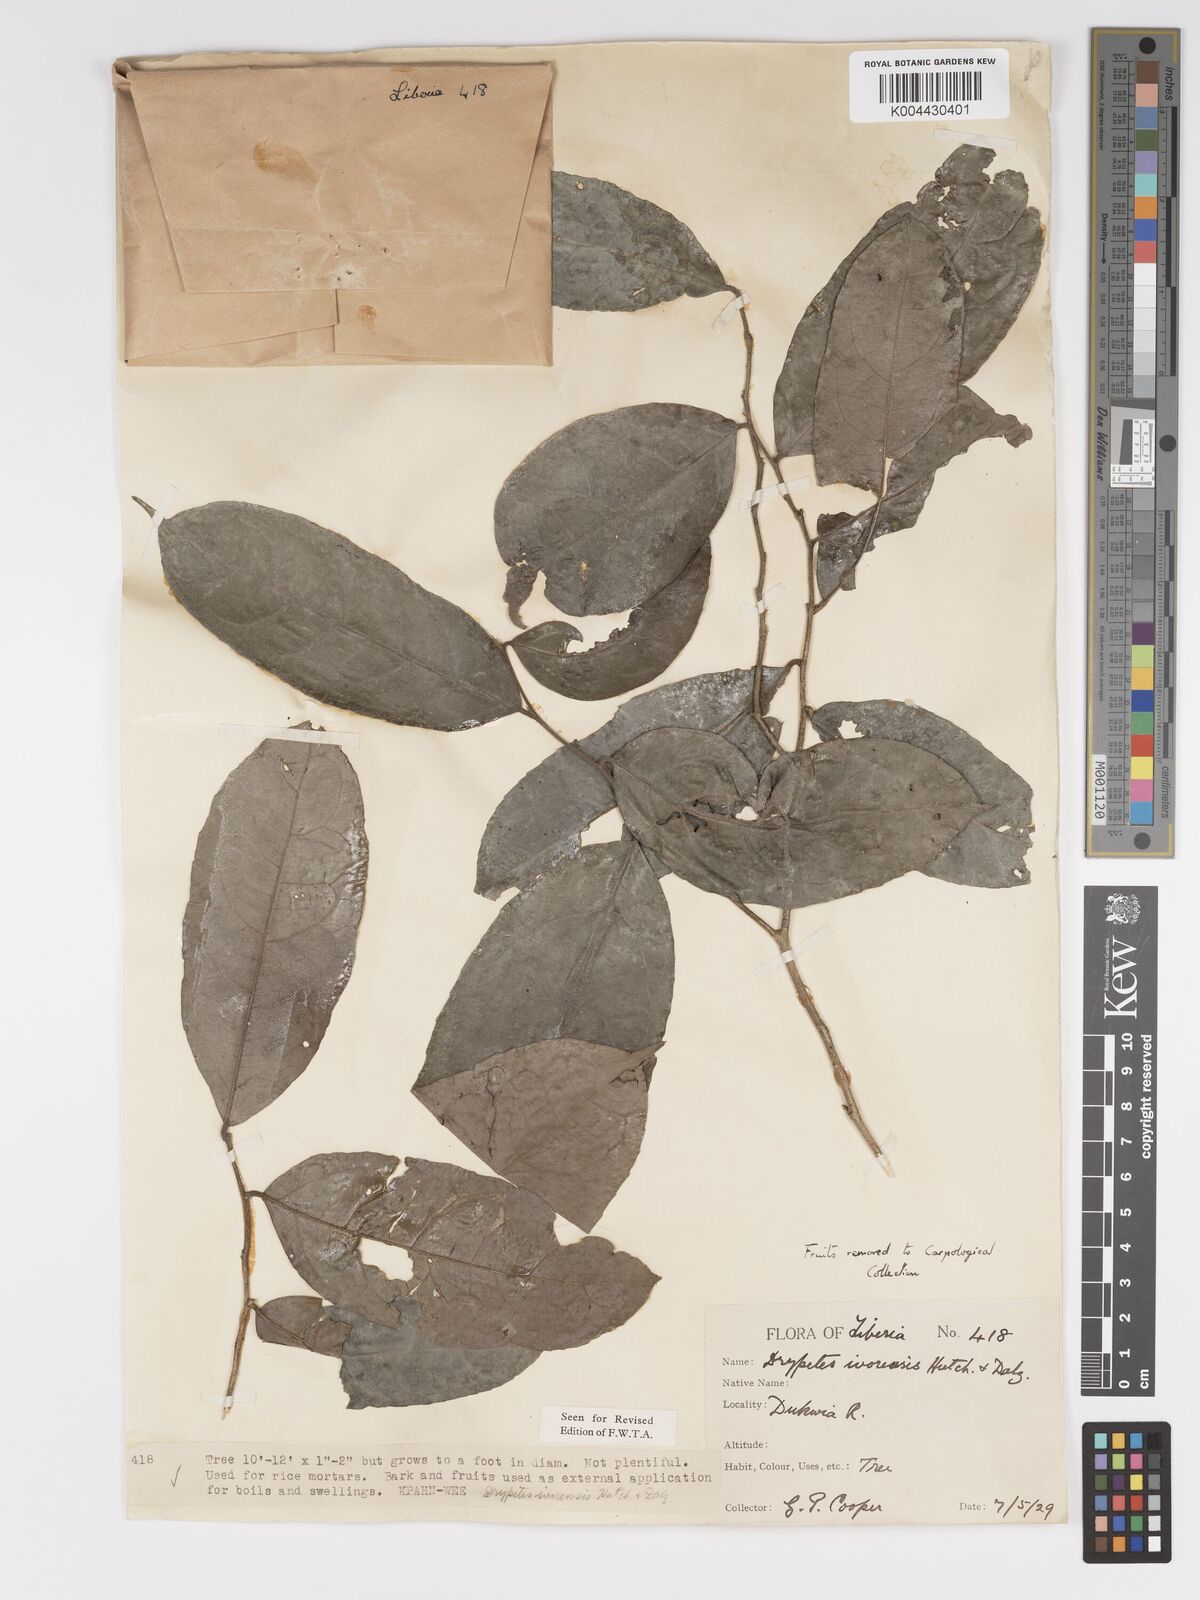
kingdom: Plantae
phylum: Tracheophyta
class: Magnoliopsida
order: Malpighiales
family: Putranjivaceae
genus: Drypetes
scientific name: Drypetes ivorensis
